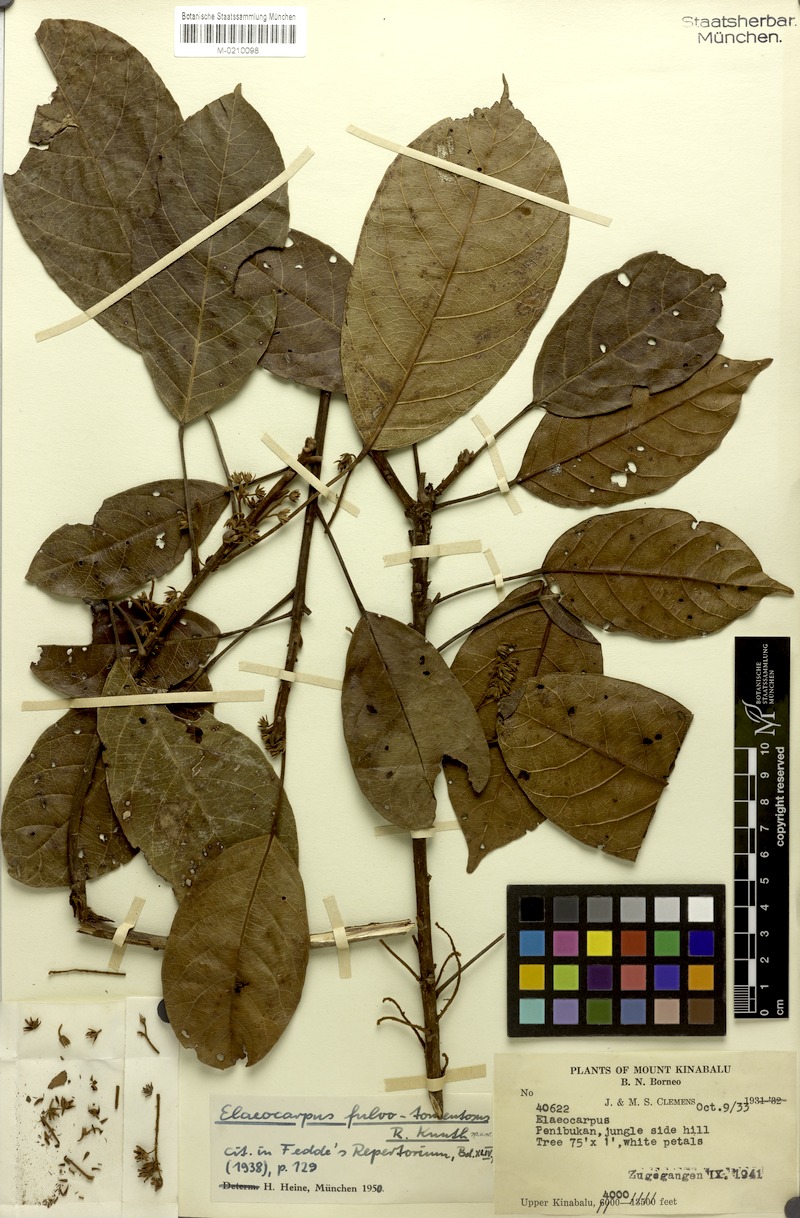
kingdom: Plantae
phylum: Tracheophyta
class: Magnoliopsida
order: Oxalidales
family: Elaeocarpaceae
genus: Elaeocarpus
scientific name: Elaeocarpus ferrugineus
